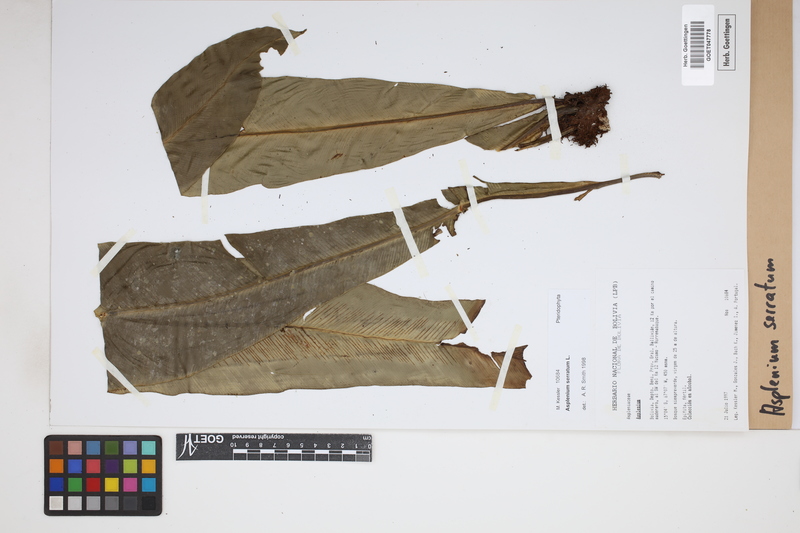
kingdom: Plantae
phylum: Tracheophyta
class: Polypodiopsida
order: Polypodiales
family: Aspleniaceae
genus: Asplenium
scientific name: Asplenium serratum
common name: Wild birdnest fern
